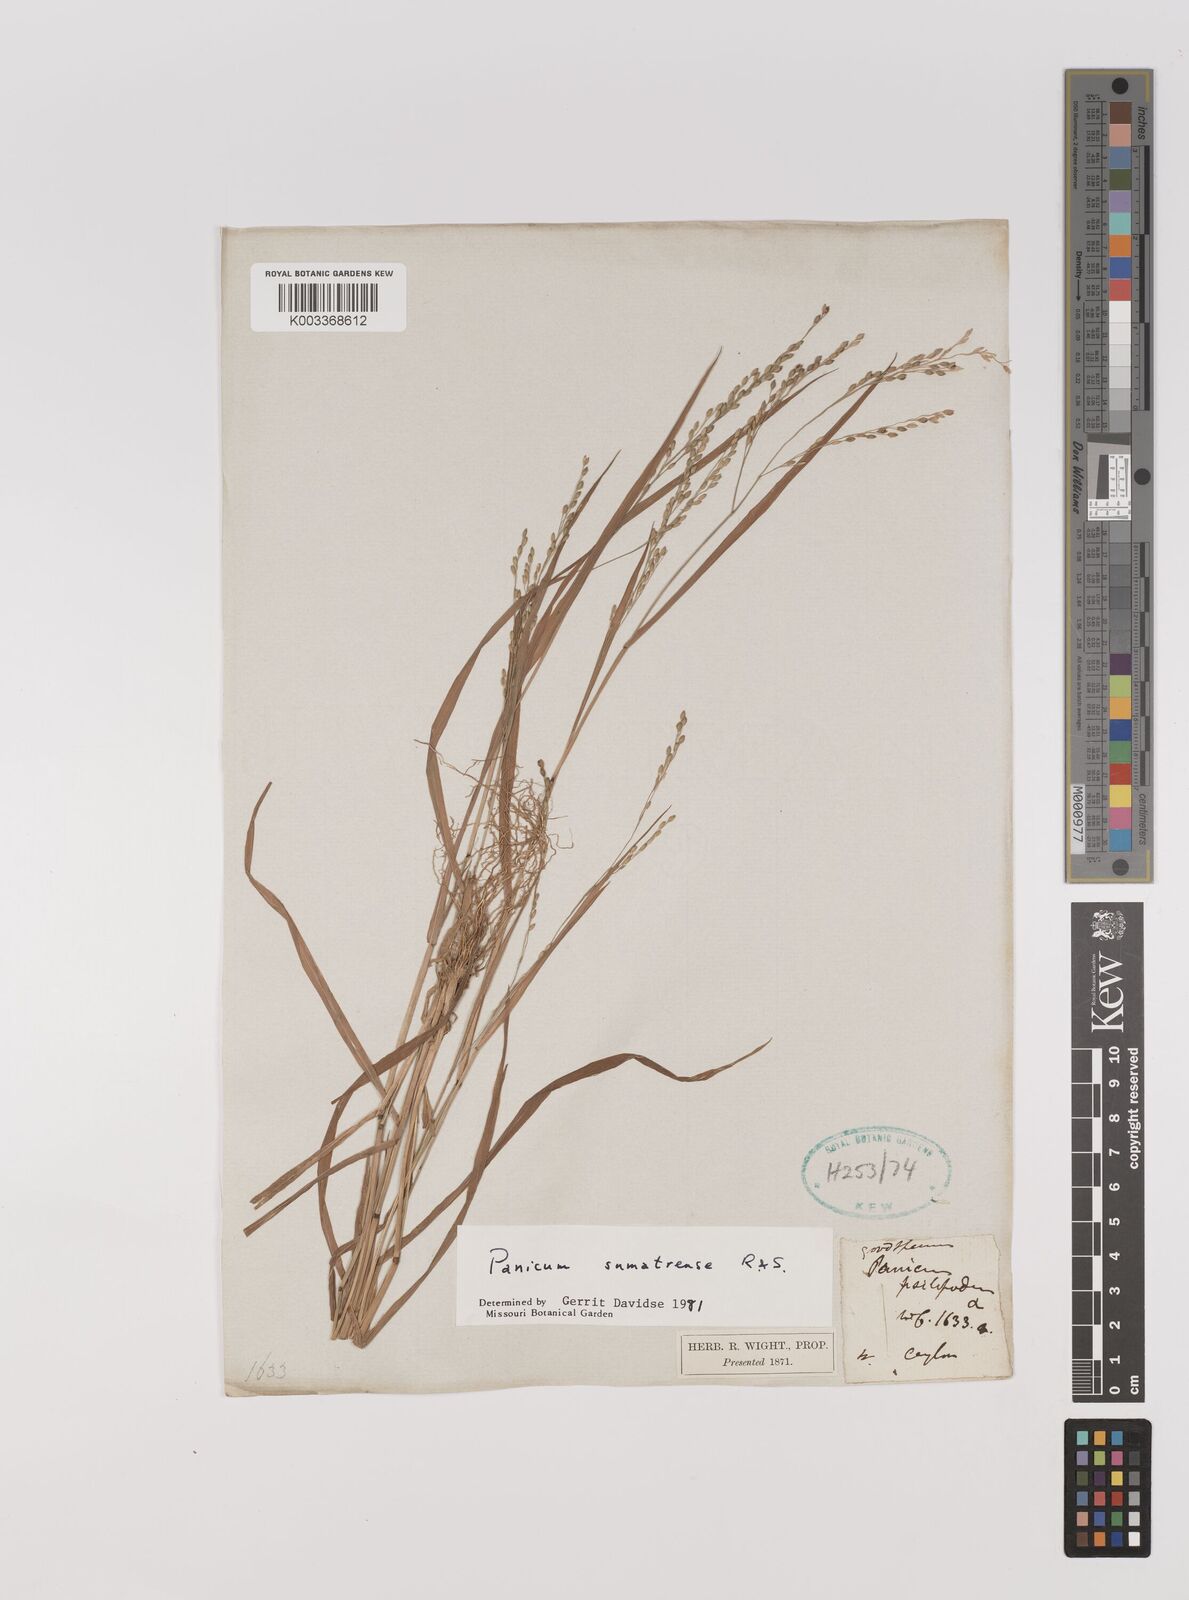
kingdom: Plantae
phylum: Tracheophyta
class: Liliopsida
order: Poales
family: Poaceae
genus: Panicum
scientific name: Panicum sumatrense
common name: Little millet
